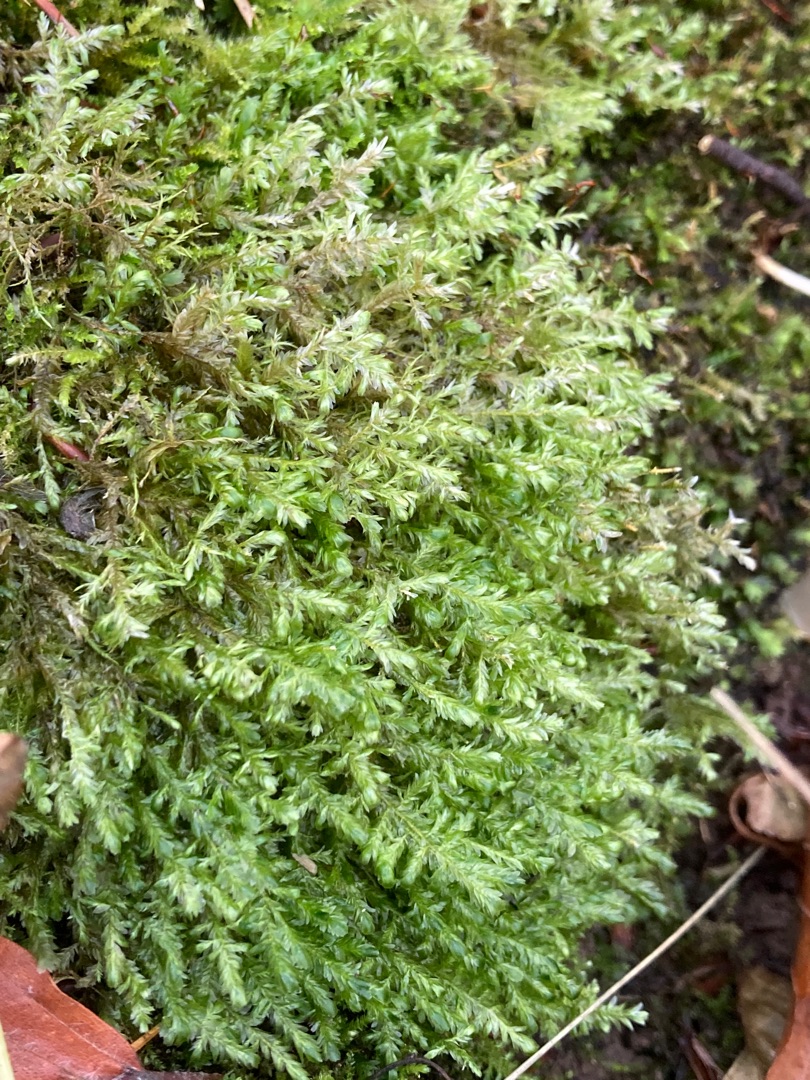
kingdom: Plantae
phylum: Bryophyta
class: Bryopsida
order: Hypnales
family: Neckeraceae
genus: Alleniella
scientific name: Alleniella complanata
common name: Almindelig fladmos
